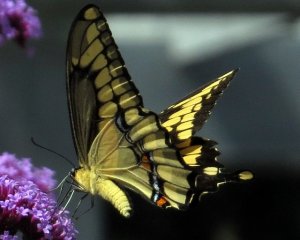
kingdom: Animalia
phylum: Arthropoda
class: Insecta
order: Lepidoptera
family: Papilionidae
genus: Papilio
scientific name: Papilio cresphontes
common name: Eastern Giant Swallowtail
